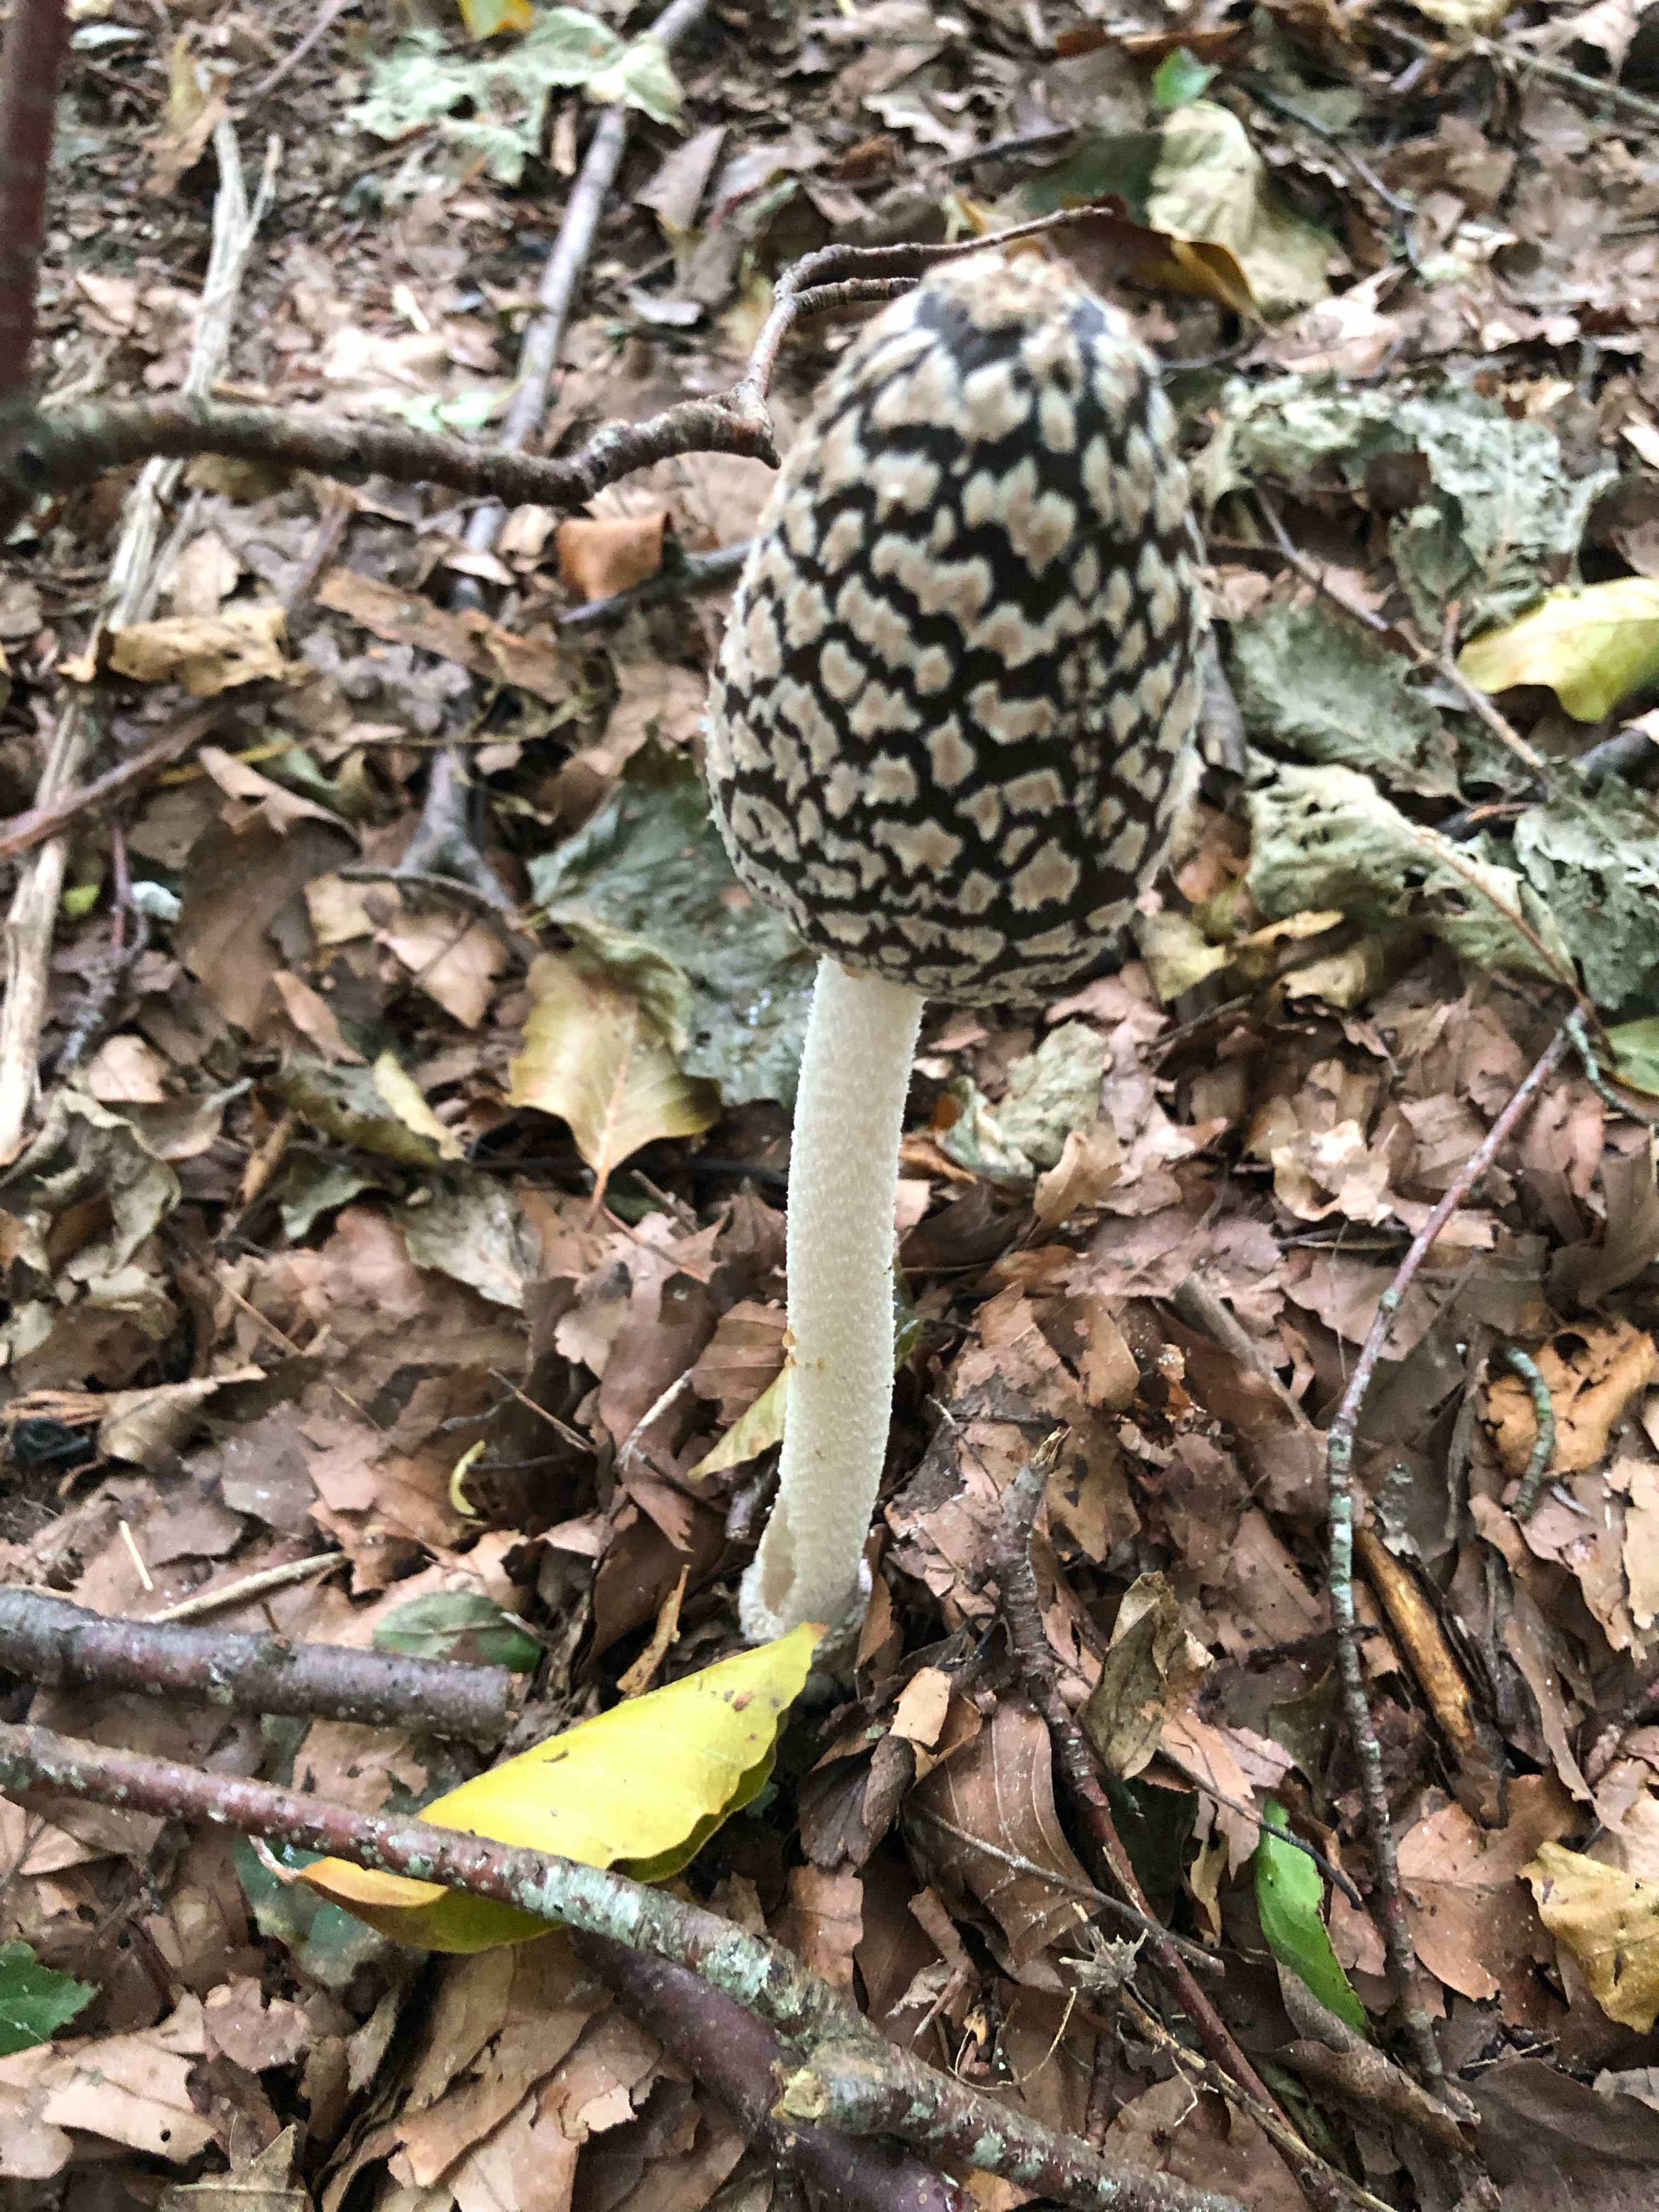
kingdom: Fungi
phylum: Basidiomycota
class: Agaricomycetes
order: Agaricales
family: Psathyrellaceae
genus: Coprinopsis
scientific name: Coprinopsis picacea
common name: skade-blækhat
